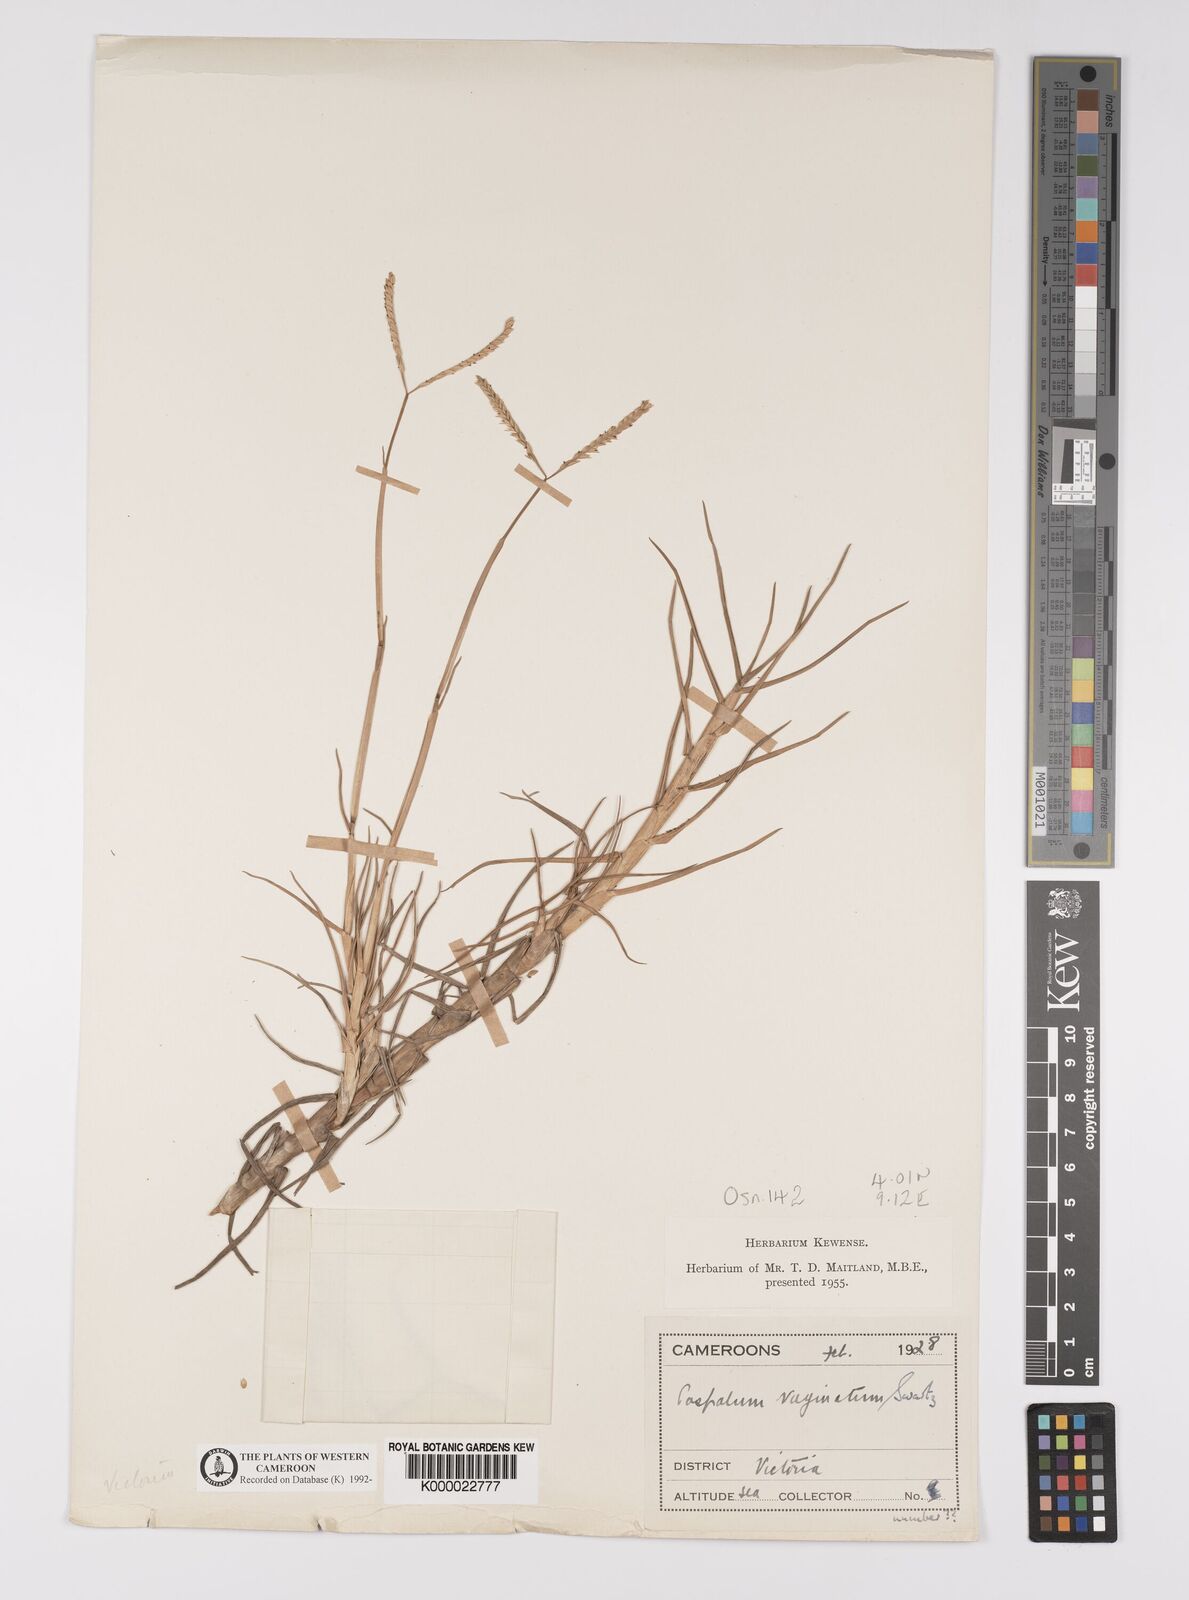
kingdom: Plantae
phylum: Tracheophyta
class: Liliopsida
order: Poales
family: Poaceae
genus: Paspalum
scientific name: Paspalum vaginatum
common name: Seashore paspalum
